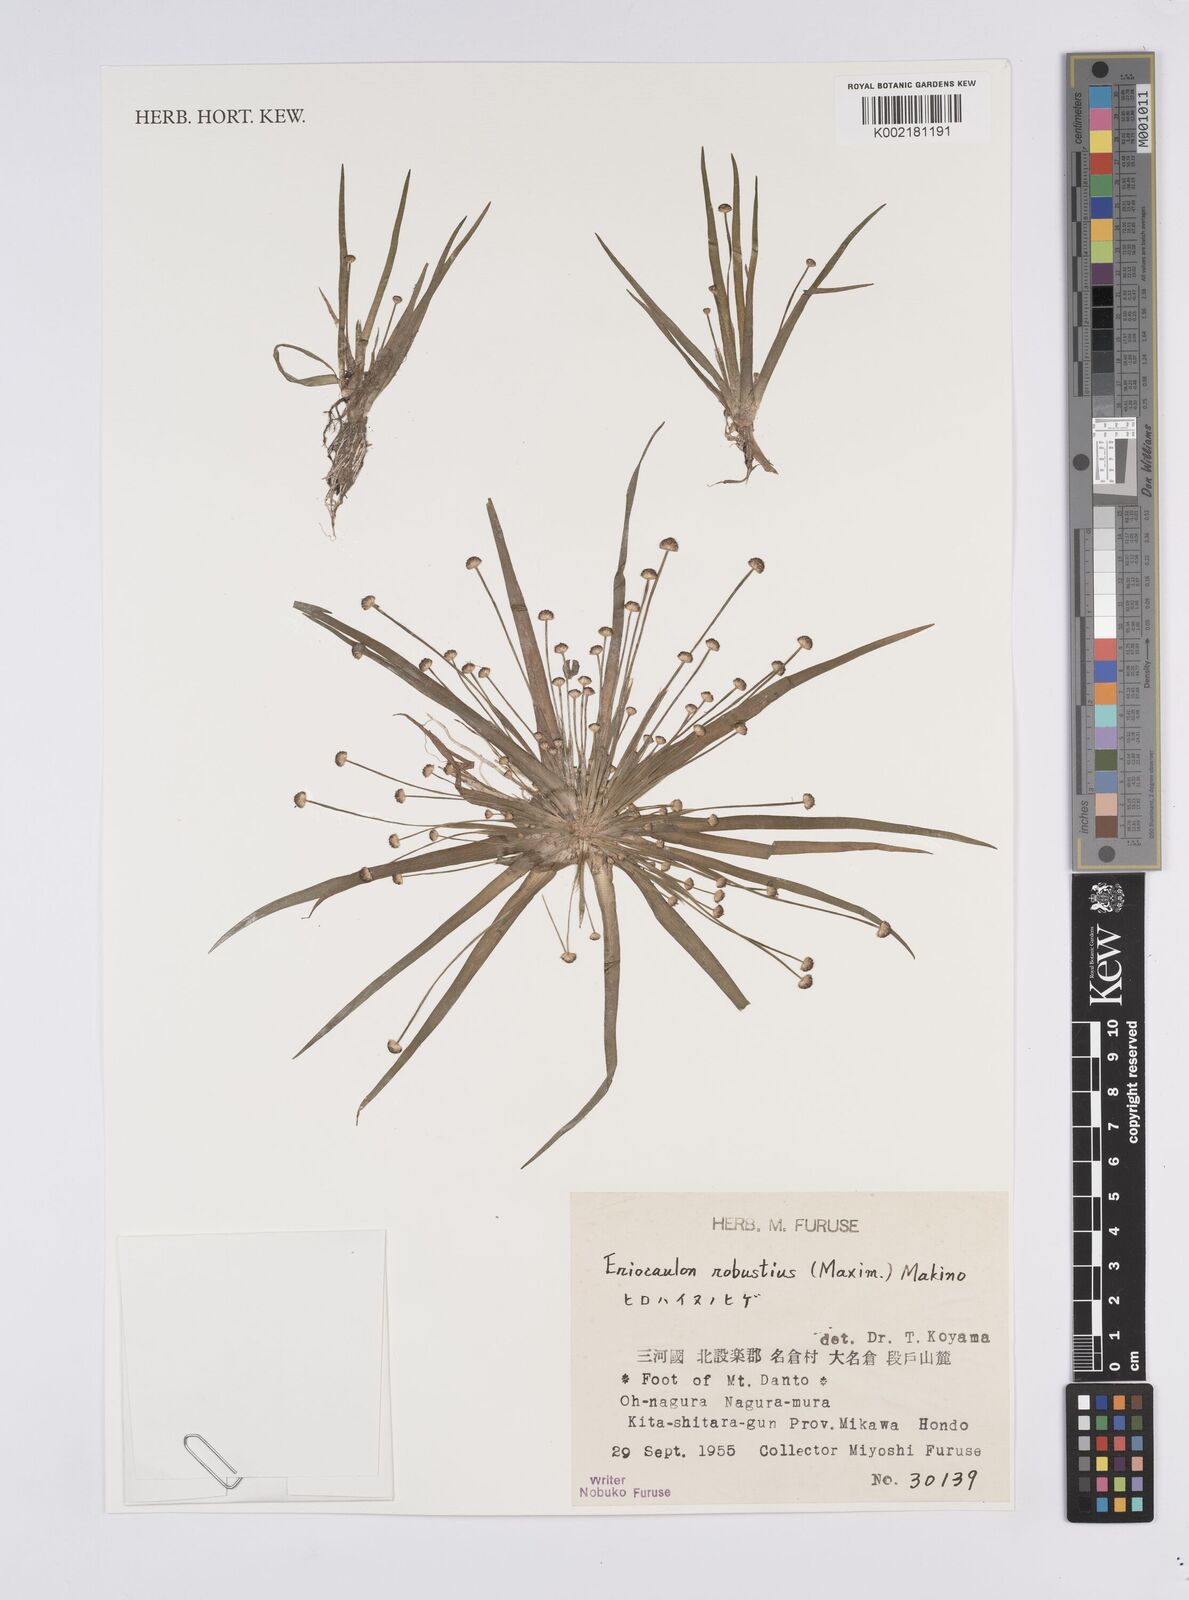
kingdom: Plantae
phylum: Tracheophyta
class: Liliopsida
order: Poales
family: Eriocaulaceae
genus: Eriocaulon
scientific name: Eriocaulon alpestre
